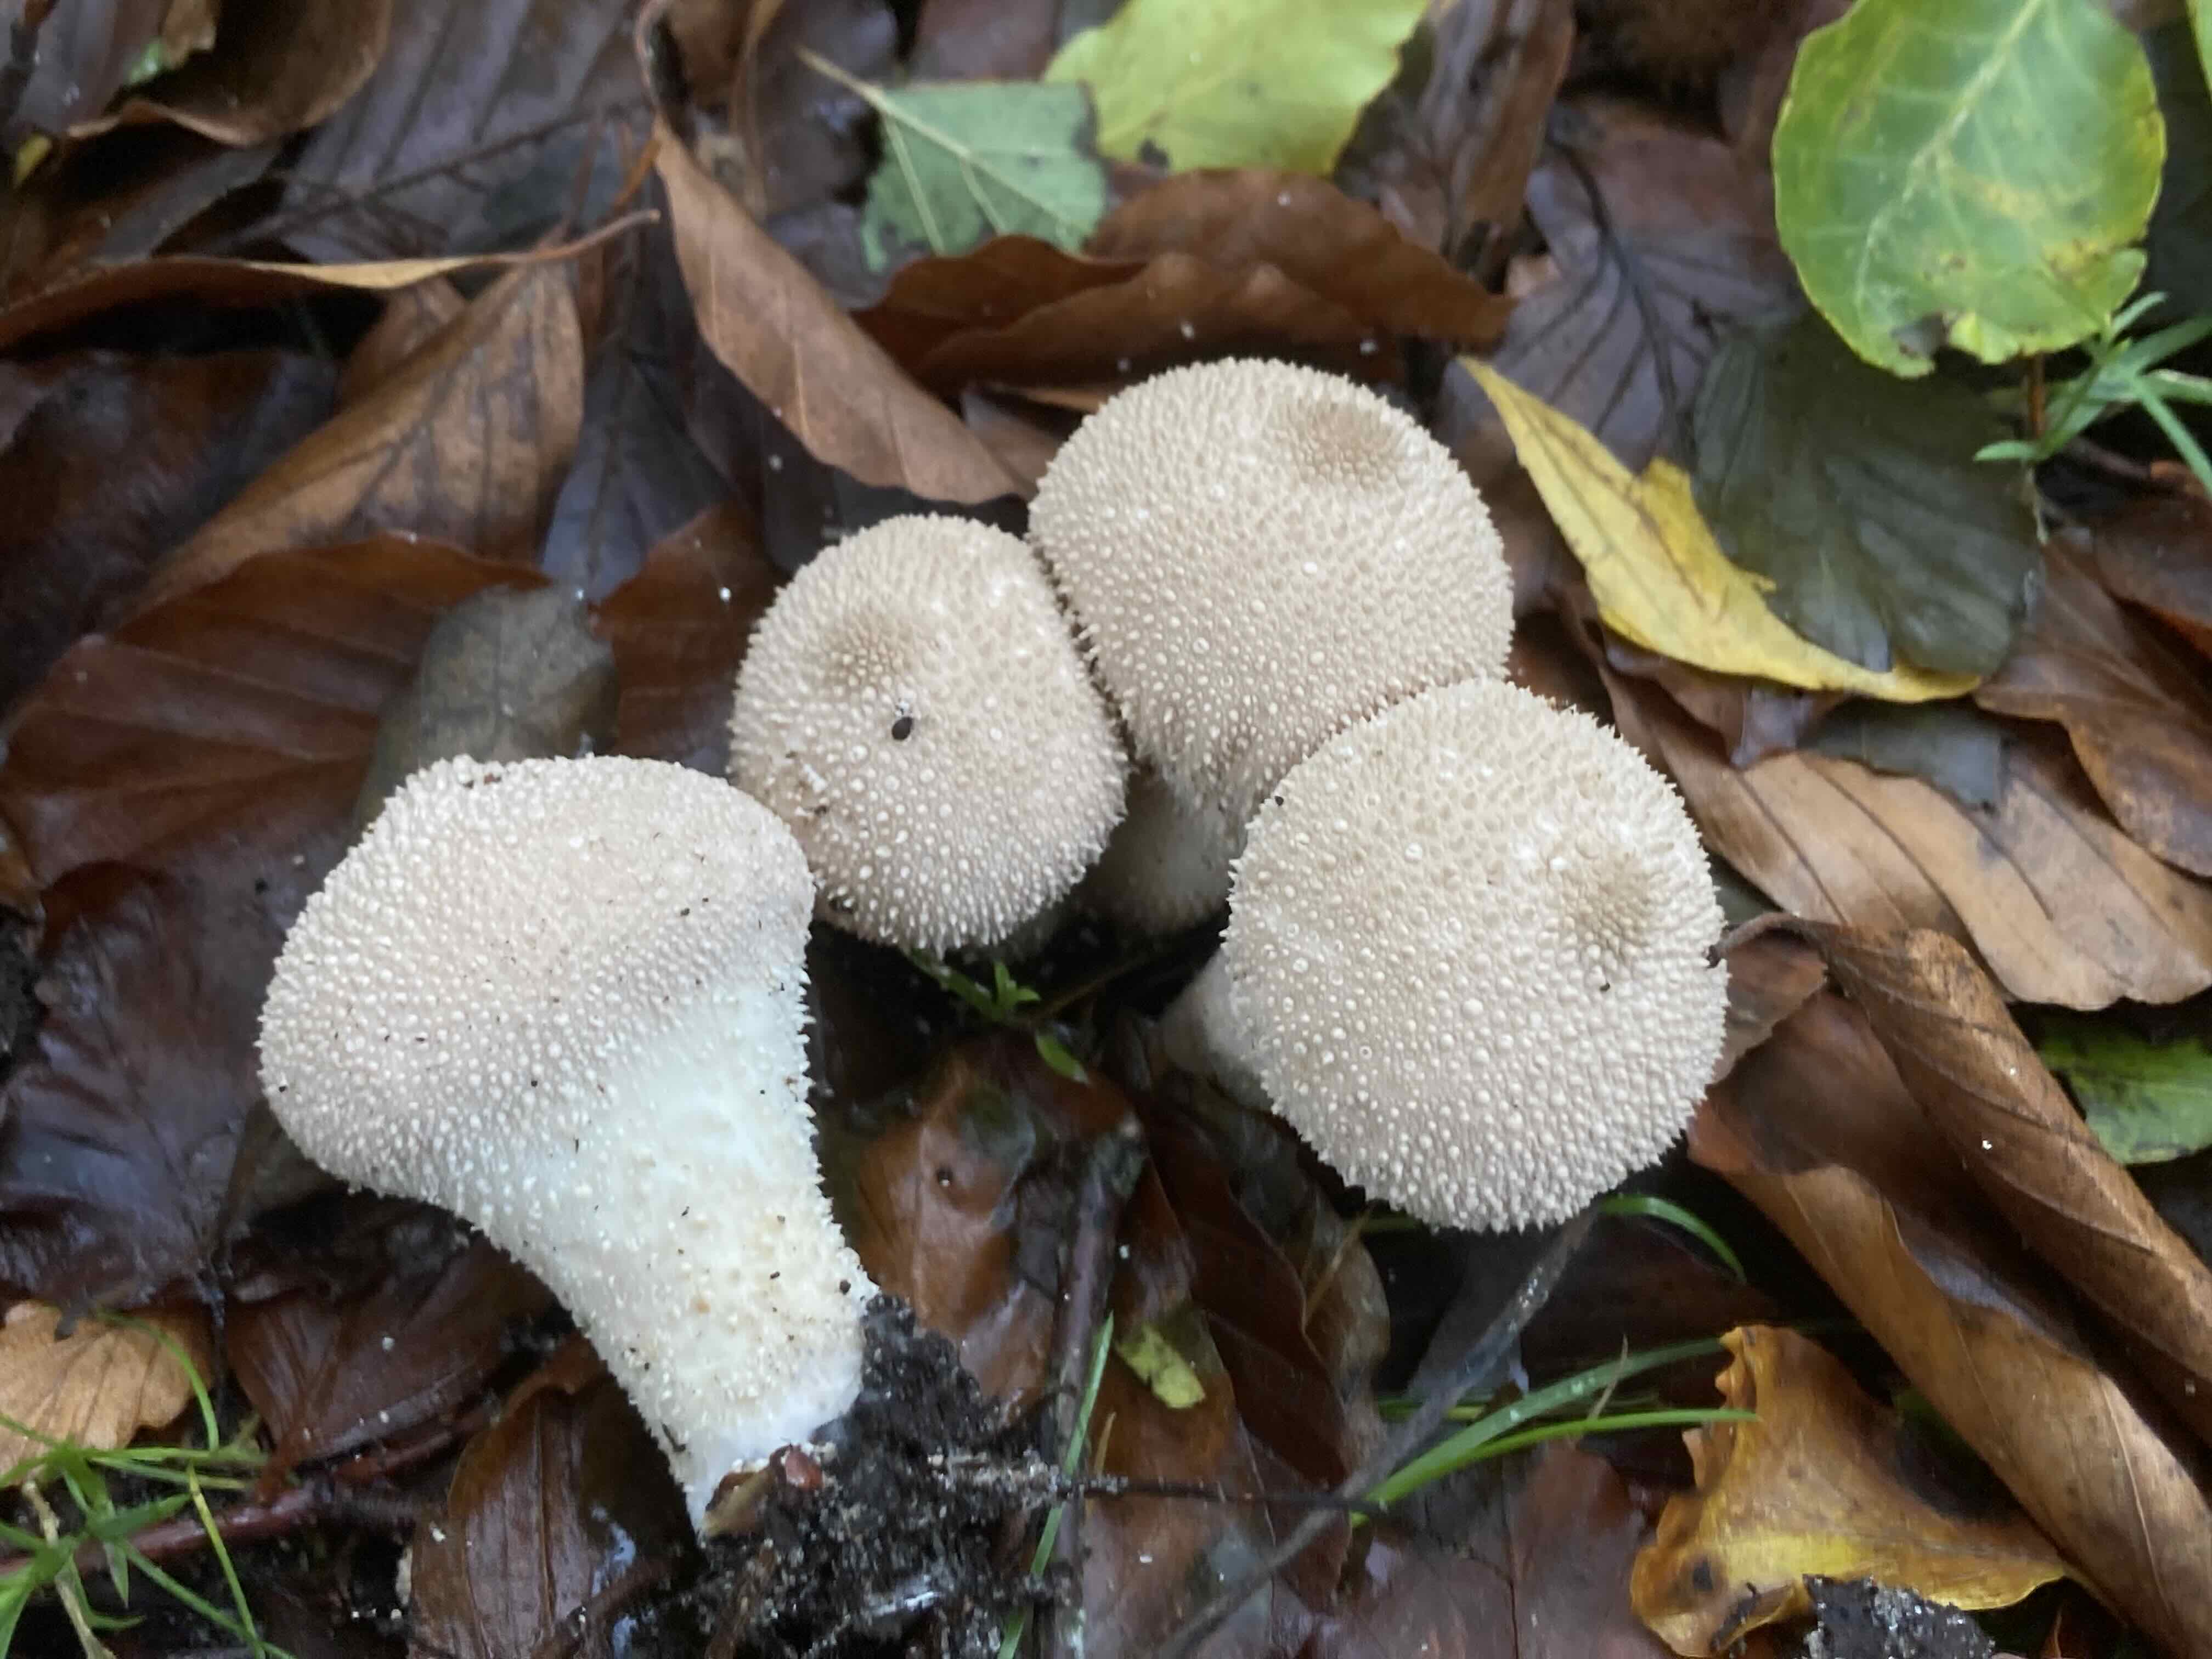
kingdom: Fungi
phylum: Basidiomycota
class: Agaricomycetes
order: Agaricales
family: Lycoperdaceae
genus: Lycoperdon
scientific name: Lycoperdon perlatum
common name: krystal-støvbold
